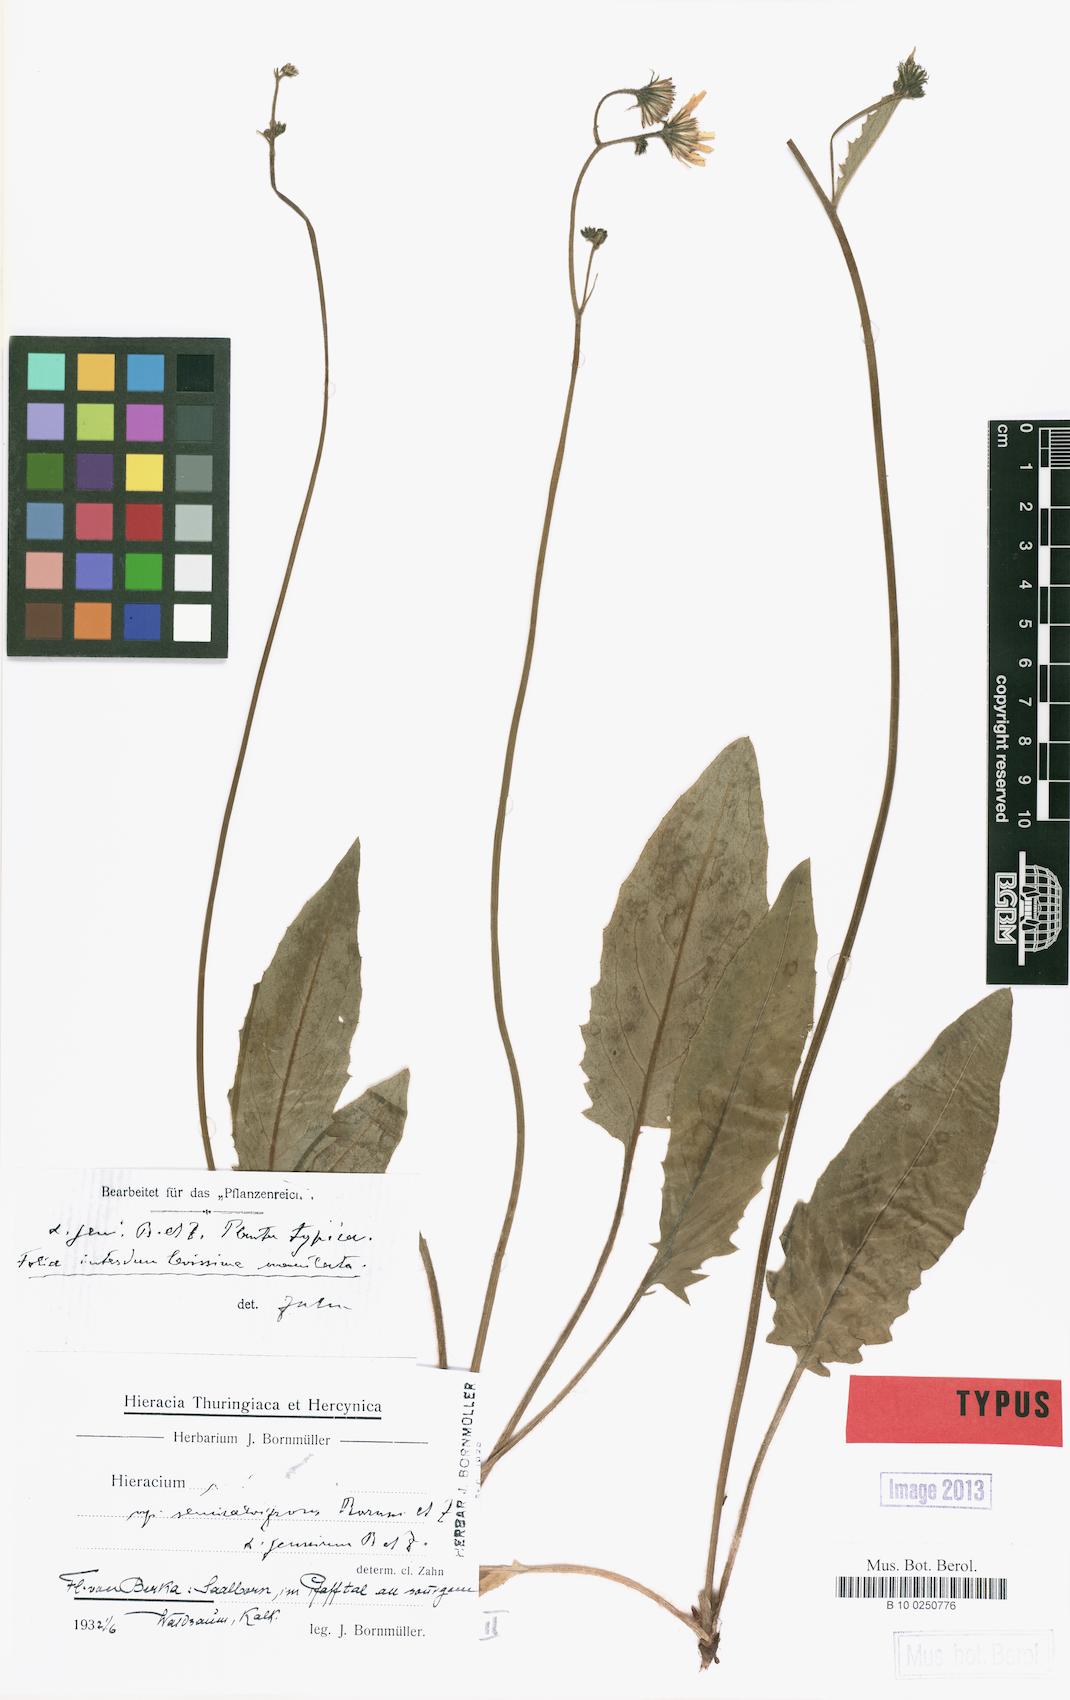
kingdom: Plantae
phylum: Tracheophyta
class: Magnoliopsida
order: Asterales
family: Asteraceae
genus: Hieracium
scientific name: Hieracium murorum
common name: Wall hawkweed
